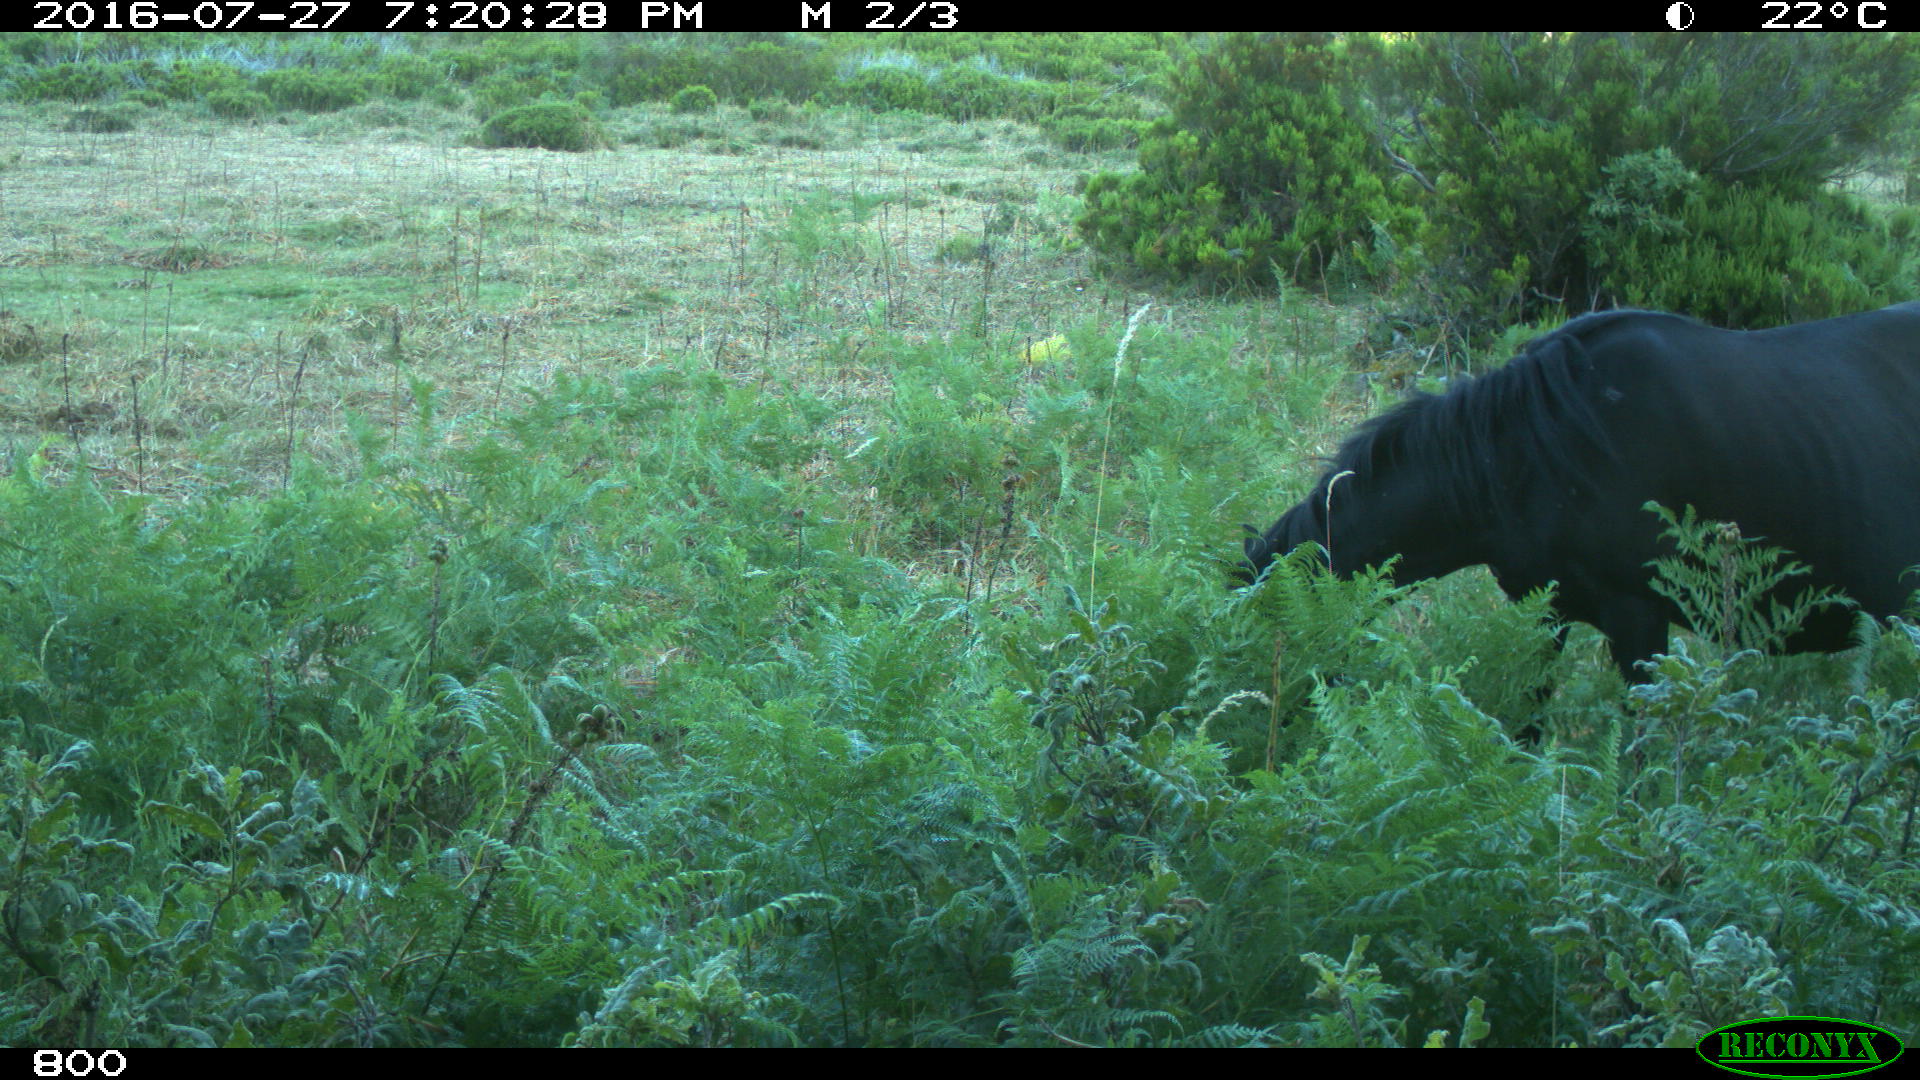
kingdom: Animalia
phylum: Chordata
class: Mammalia
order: Perissodactyla
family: Equidae
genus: Equus
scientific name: Equus caballus
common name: Horse
